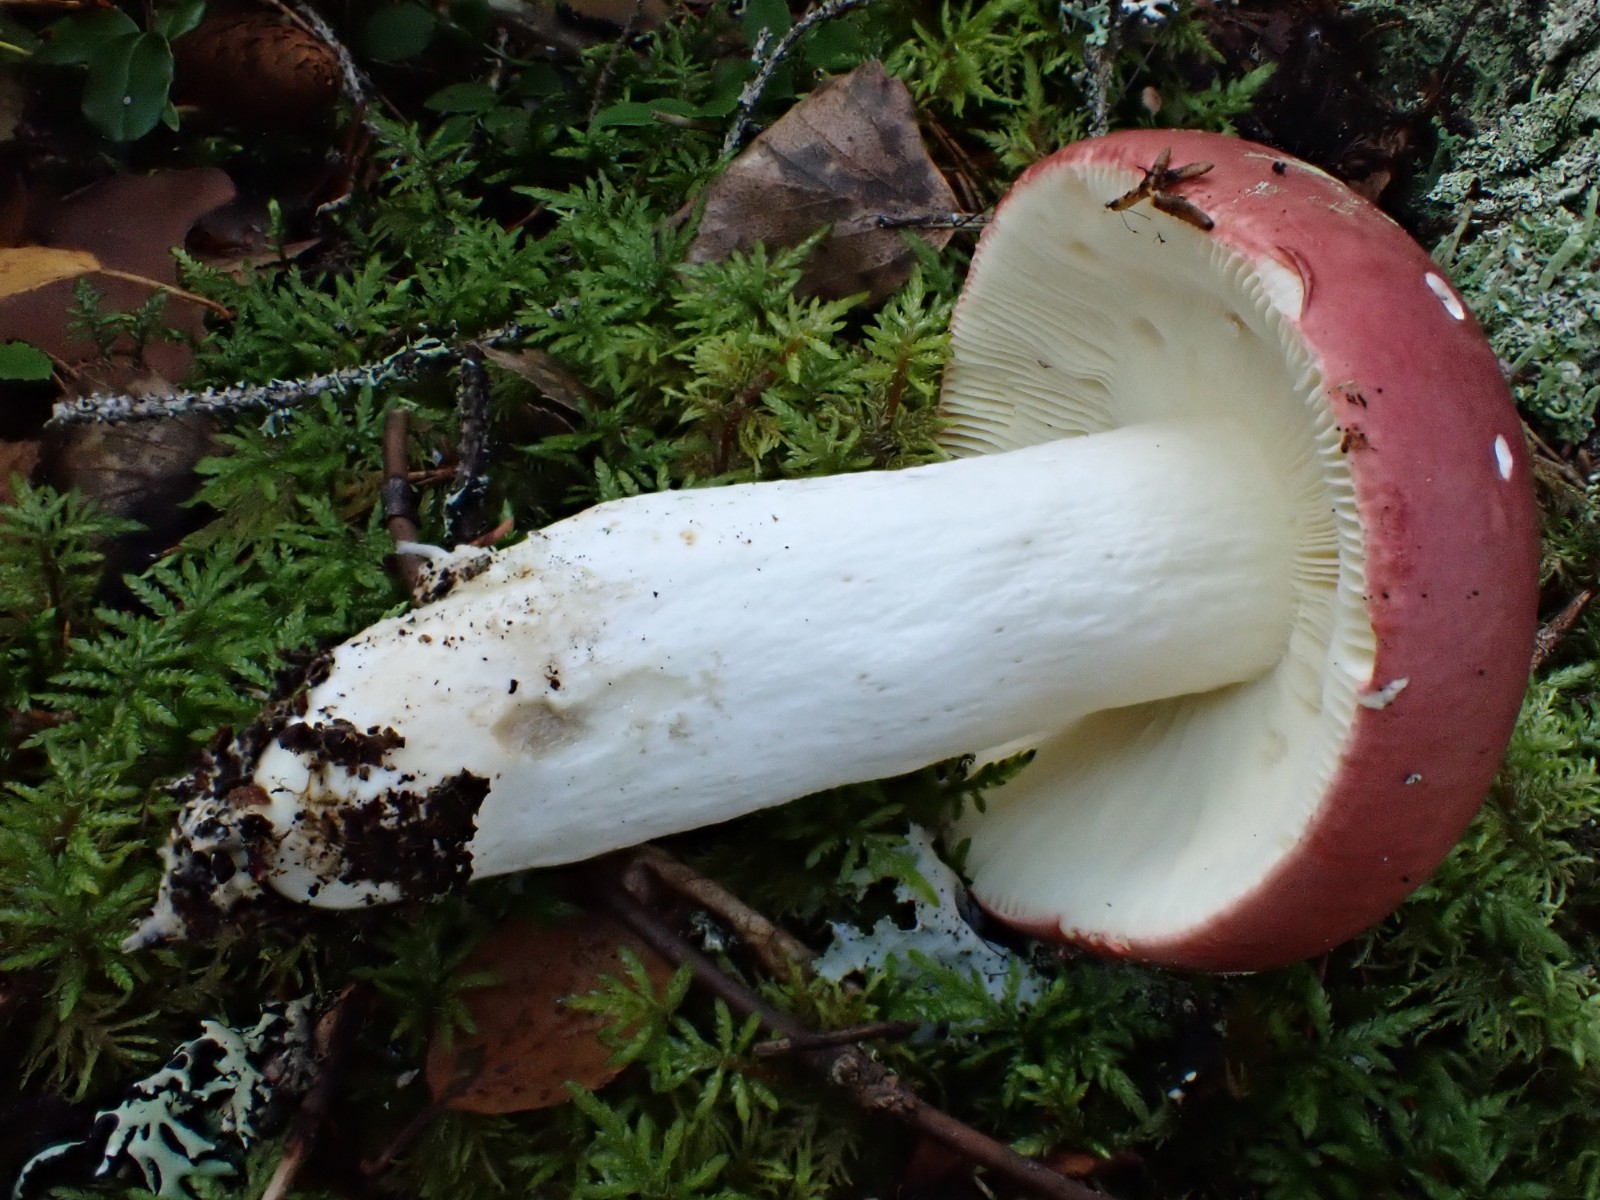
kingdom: Fungi
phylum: Basidiomycota
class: Agaricomycetes
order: Russulales
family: Russulaceae
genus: Russula
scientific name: Russula vinosa
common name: vinrød skørhat
